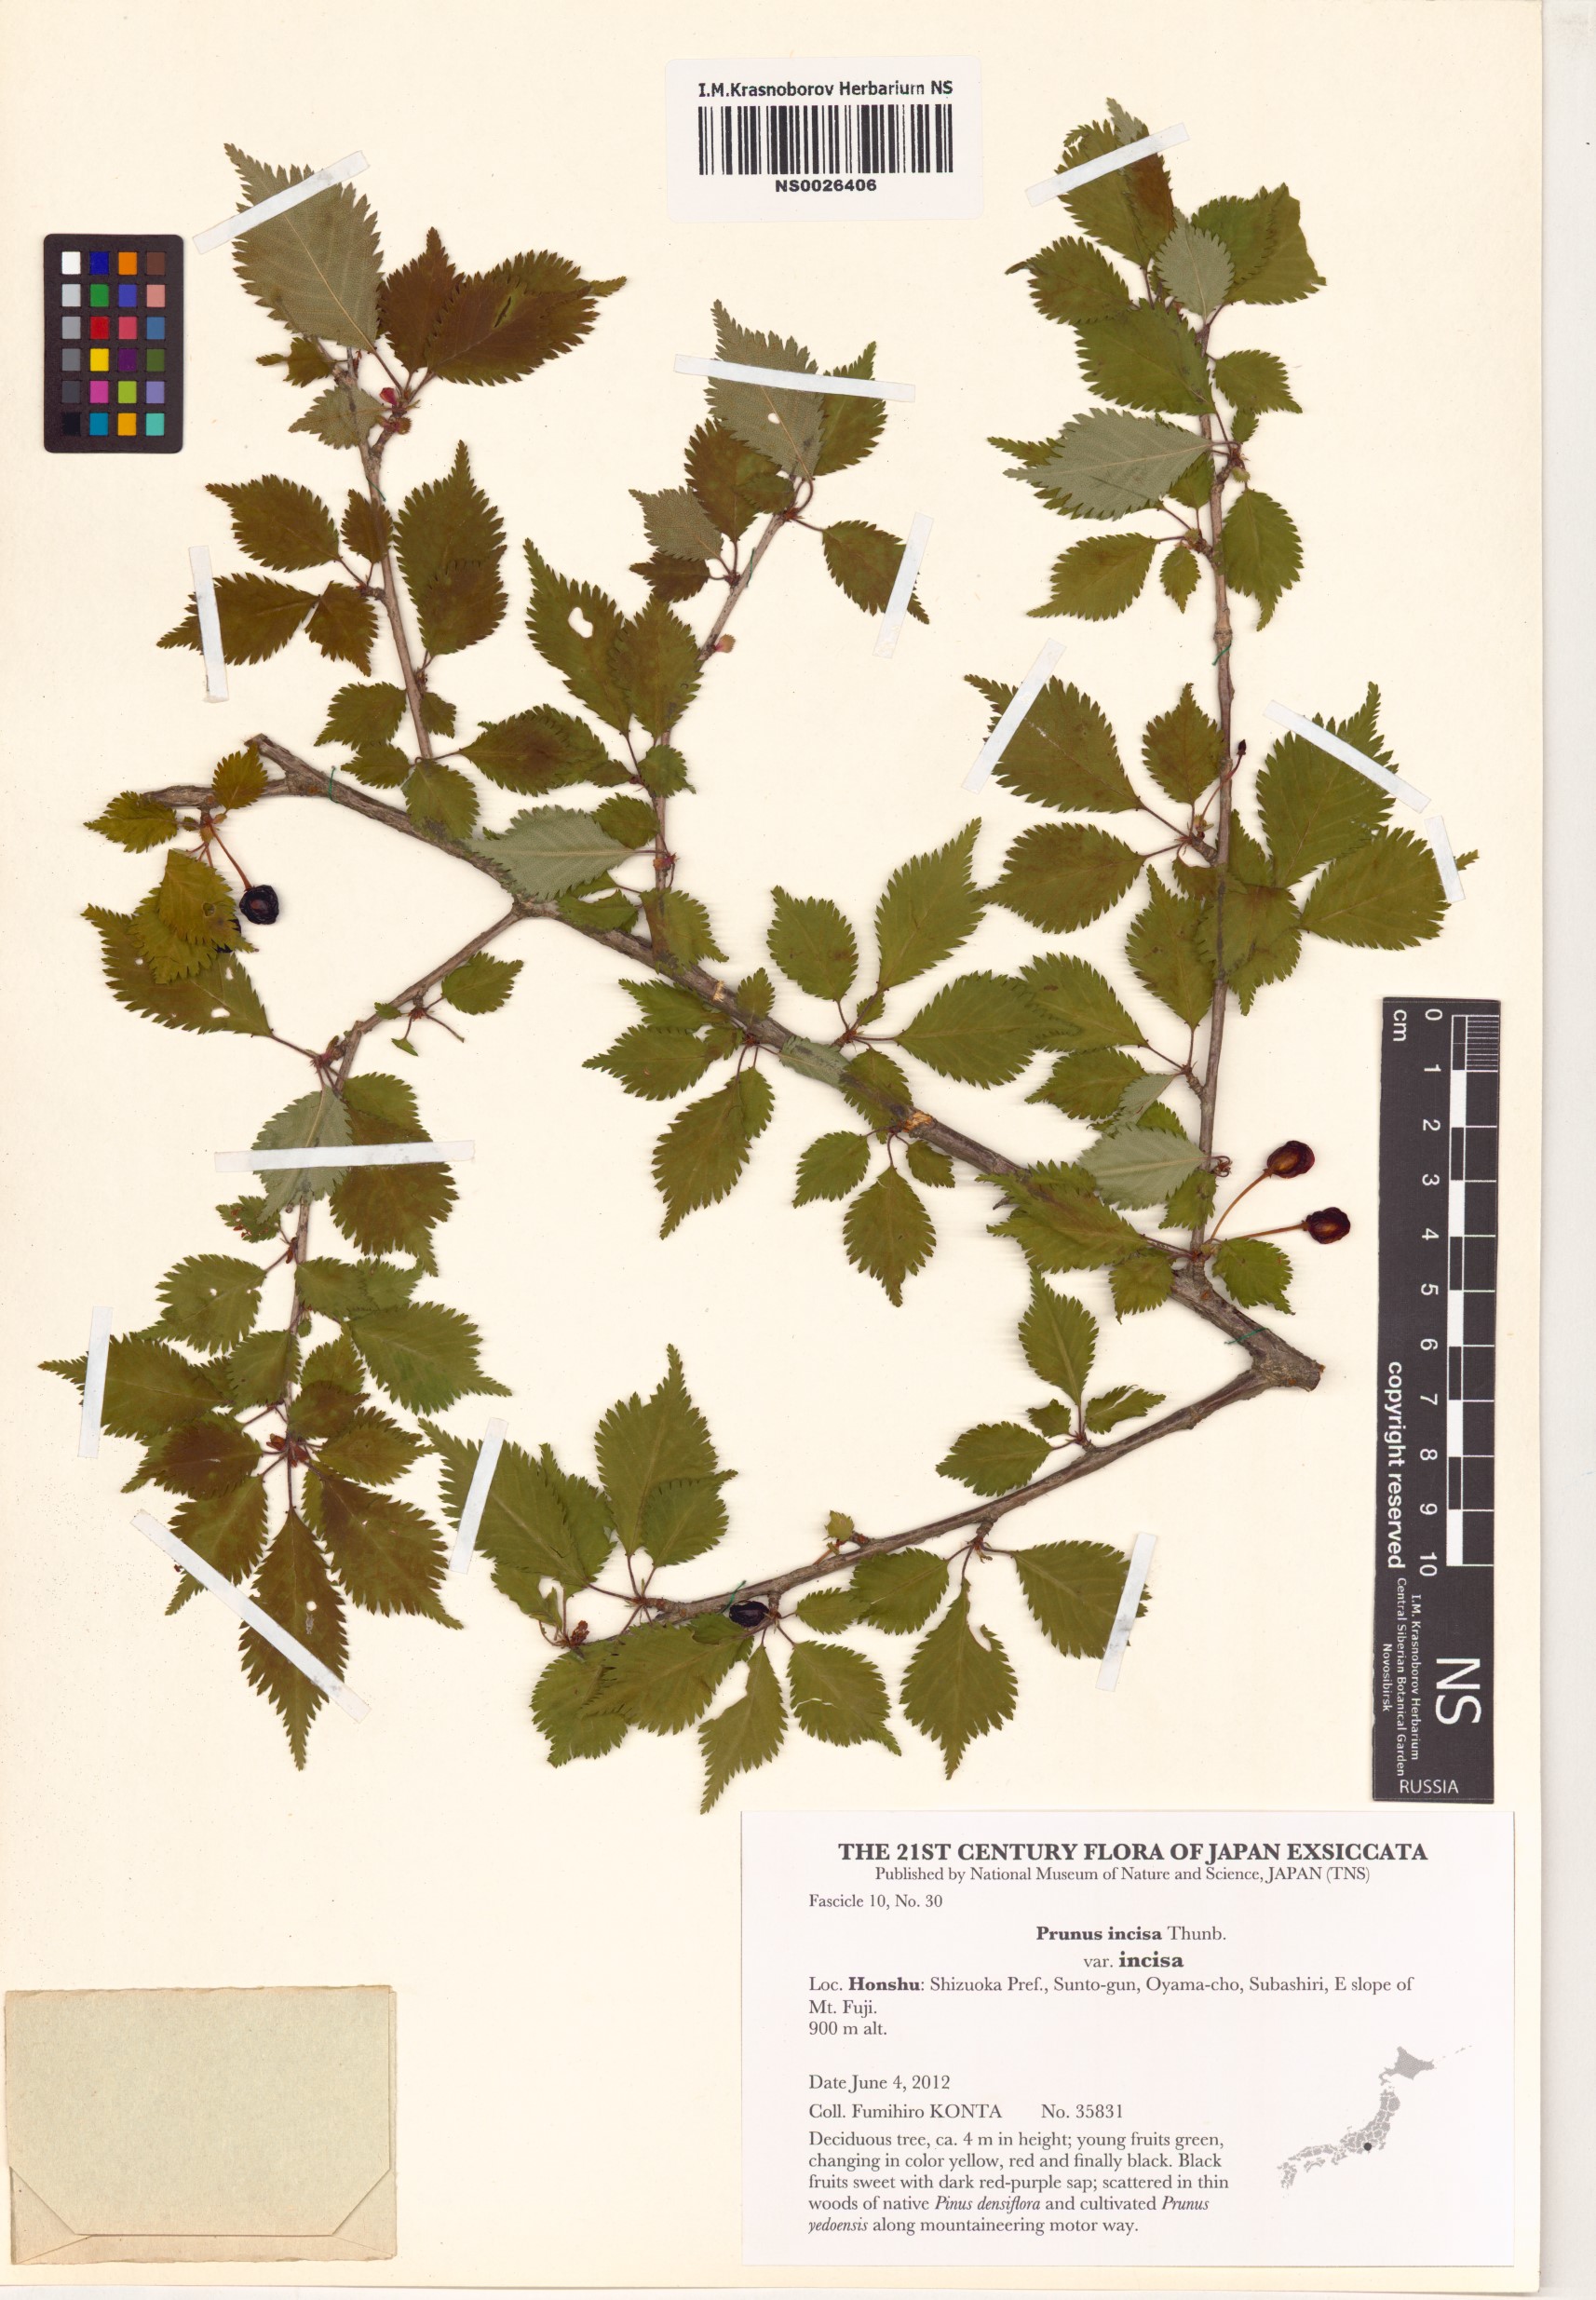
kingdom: Plantae
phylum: Tracheophyta
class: Magnoliopsida
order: Rosales
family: Rosaceae
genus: Prunus
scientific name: Prunus incisa
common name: Fuji cherry
